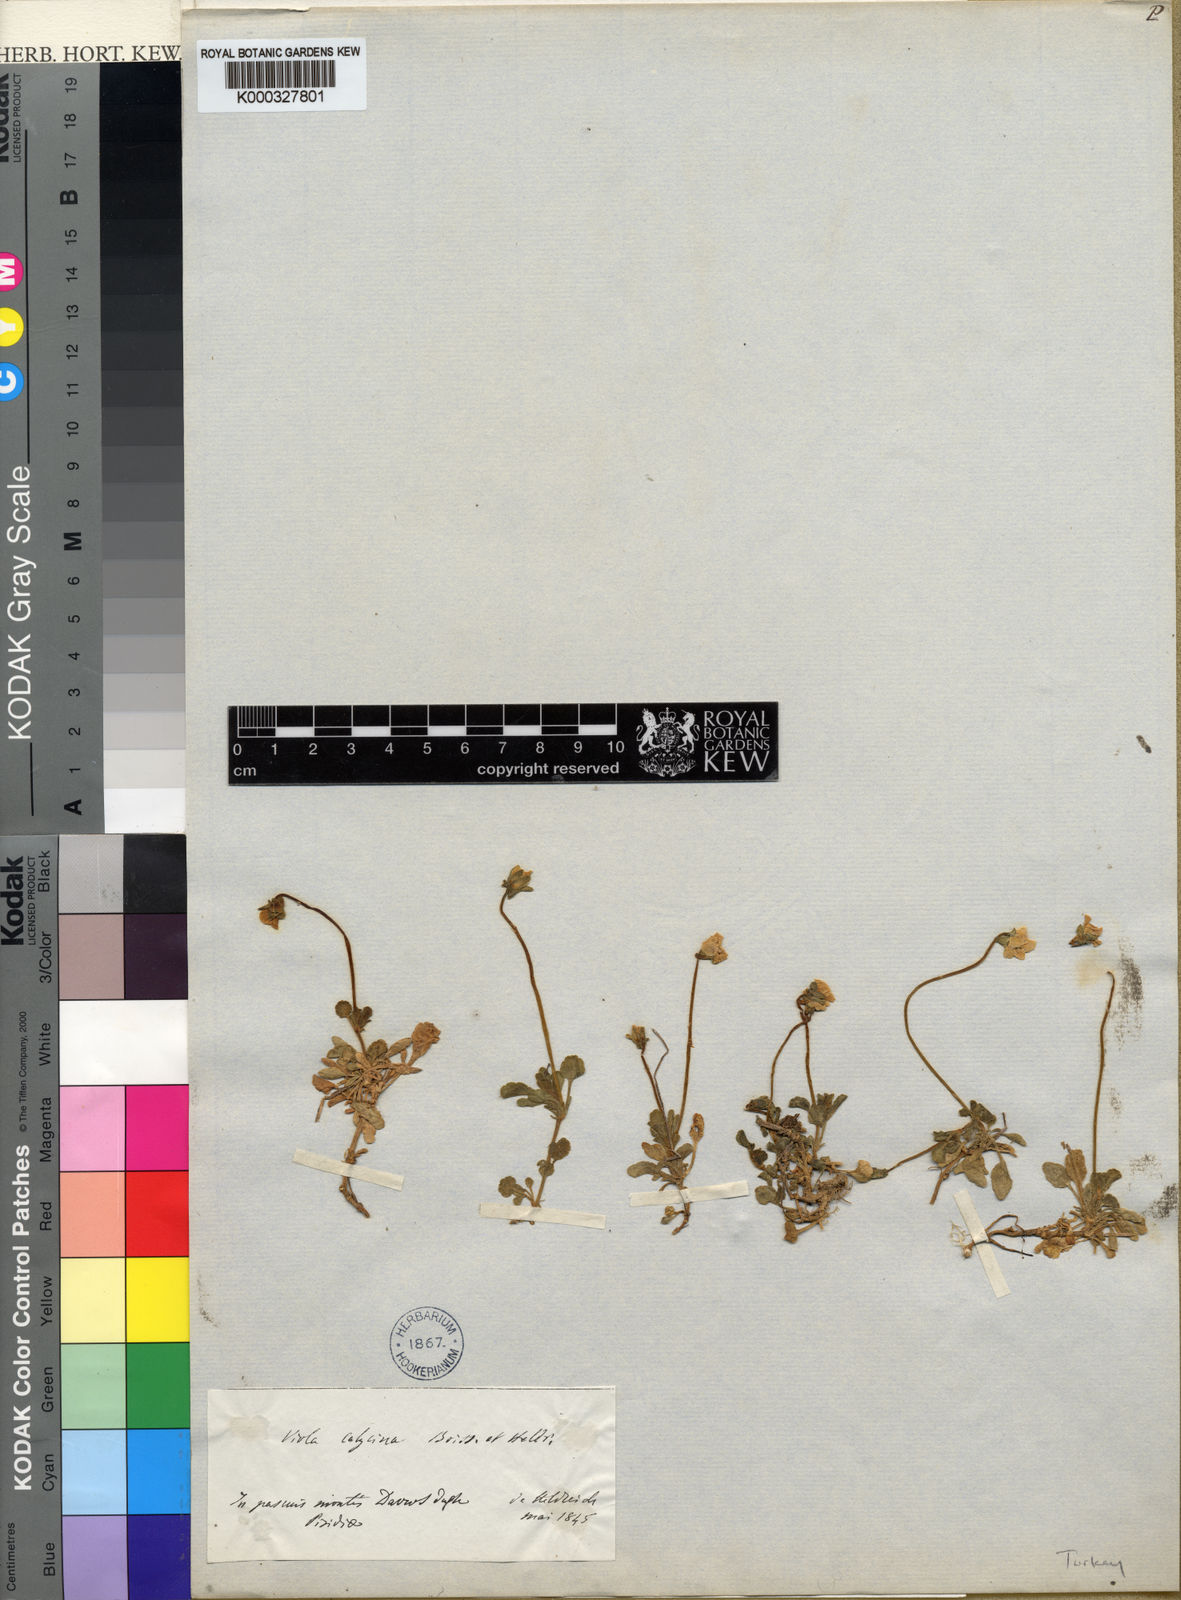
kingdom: Plantae
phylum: Tracheophyta
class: Magnoliopsida
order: Malpighiales
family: Violaceae
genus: Viola
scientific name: Viola gracilis
